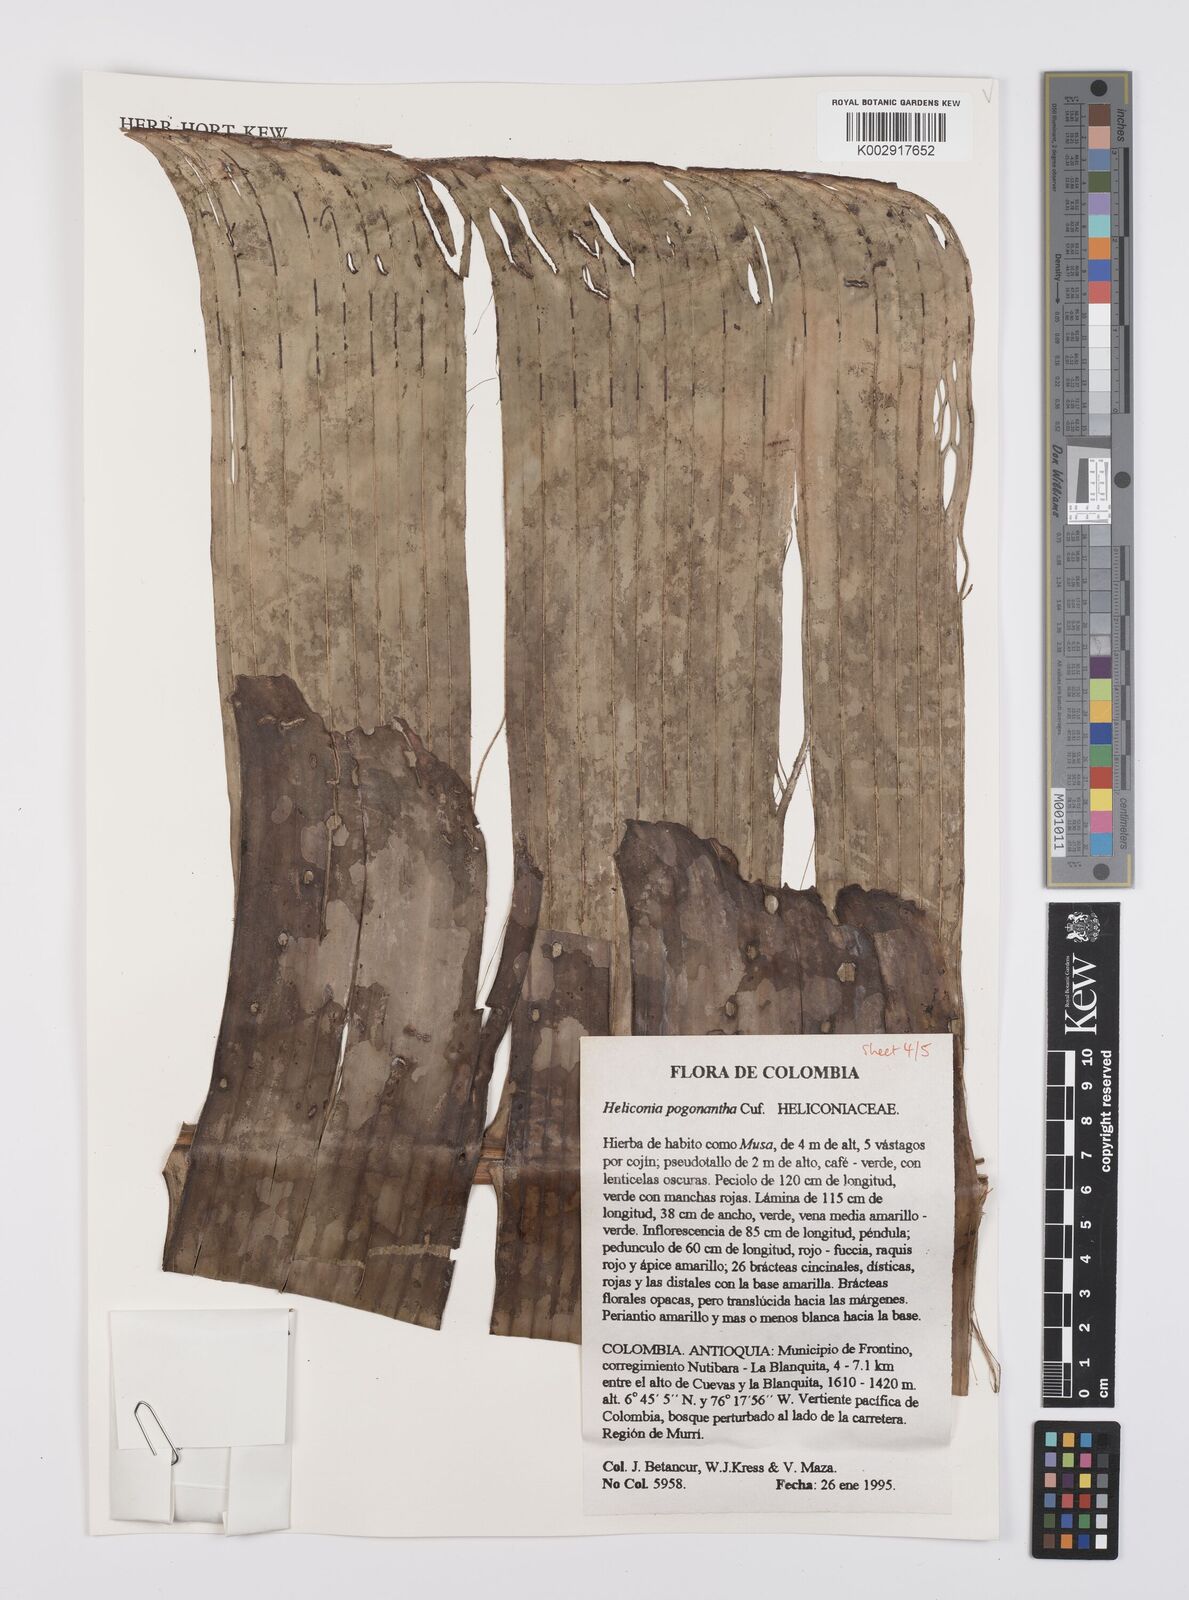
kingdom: Plantae
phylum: Tracheophyta
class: Liliopsida
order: Zingiberales
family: Heliconiaceae
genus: Heliconia
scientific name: Heliconia pogonantha
